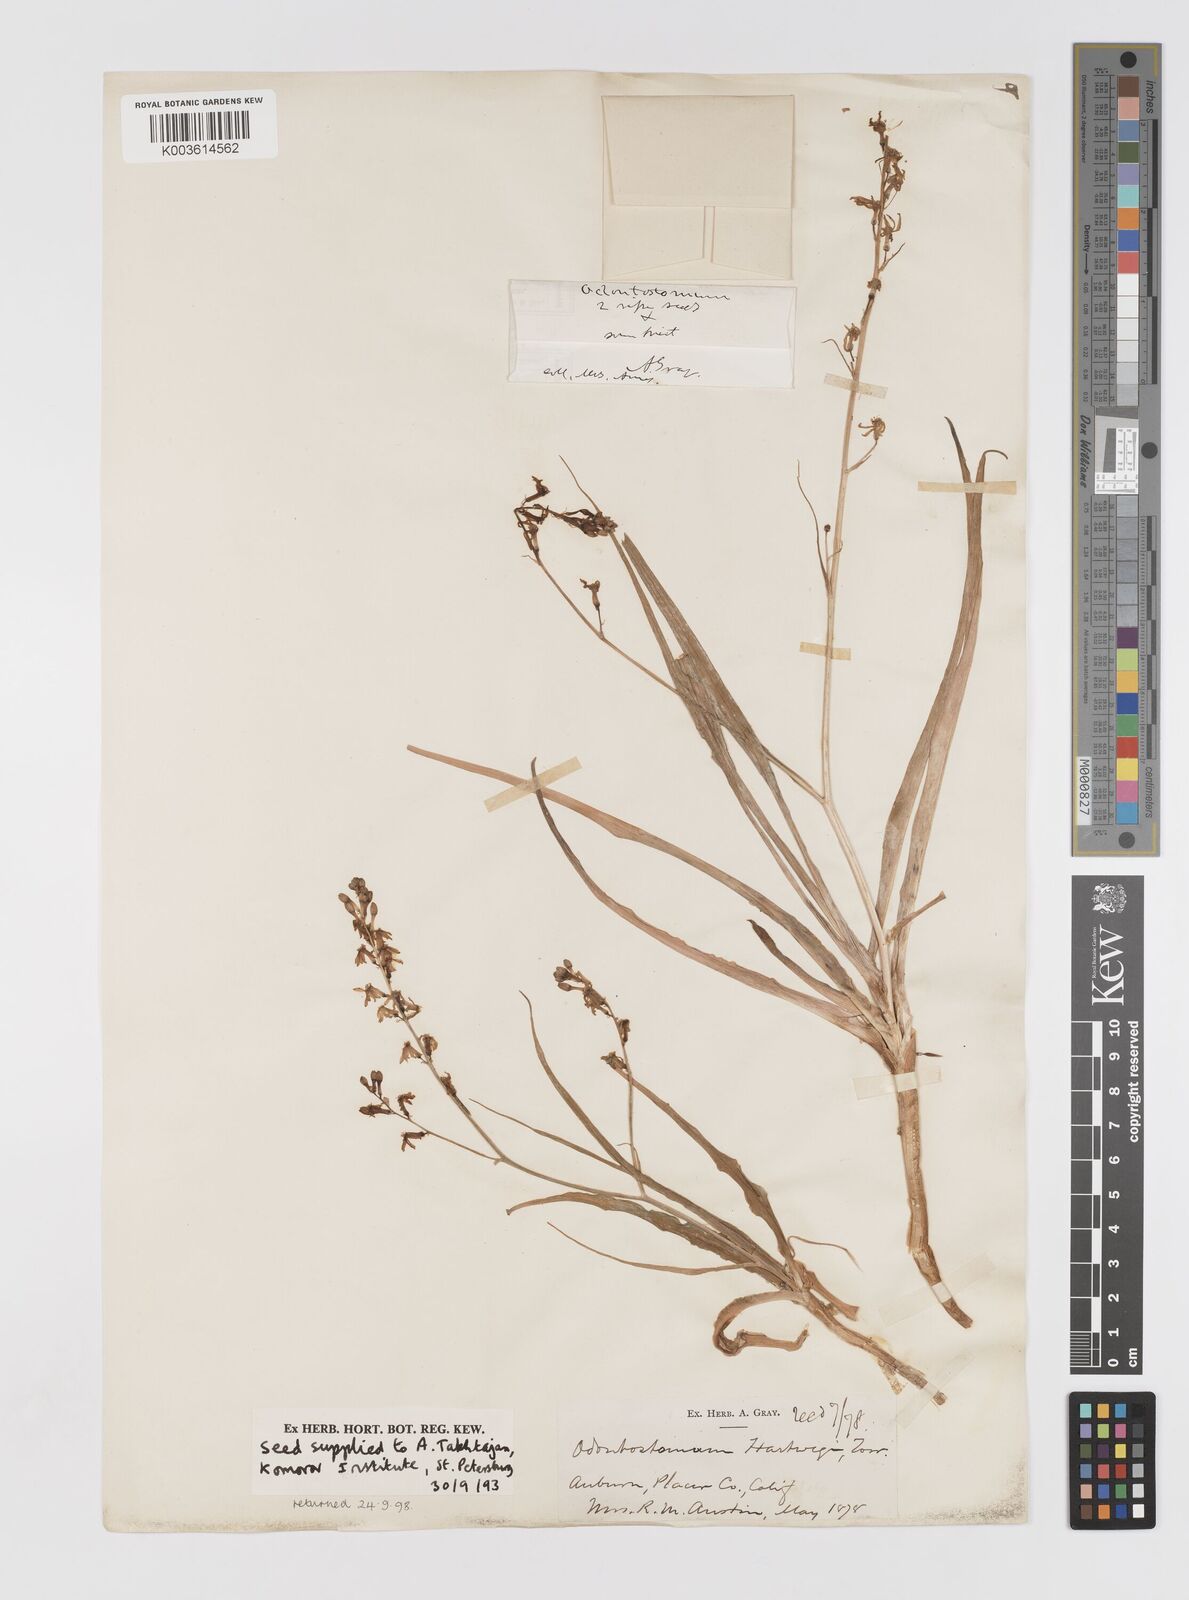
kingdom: Plantae
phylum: Tracheophyta
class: Liliopsida
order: Asparagales
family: Tecophilaeaceae
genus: Odontostomum
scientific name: Odontostomum hartwegii
